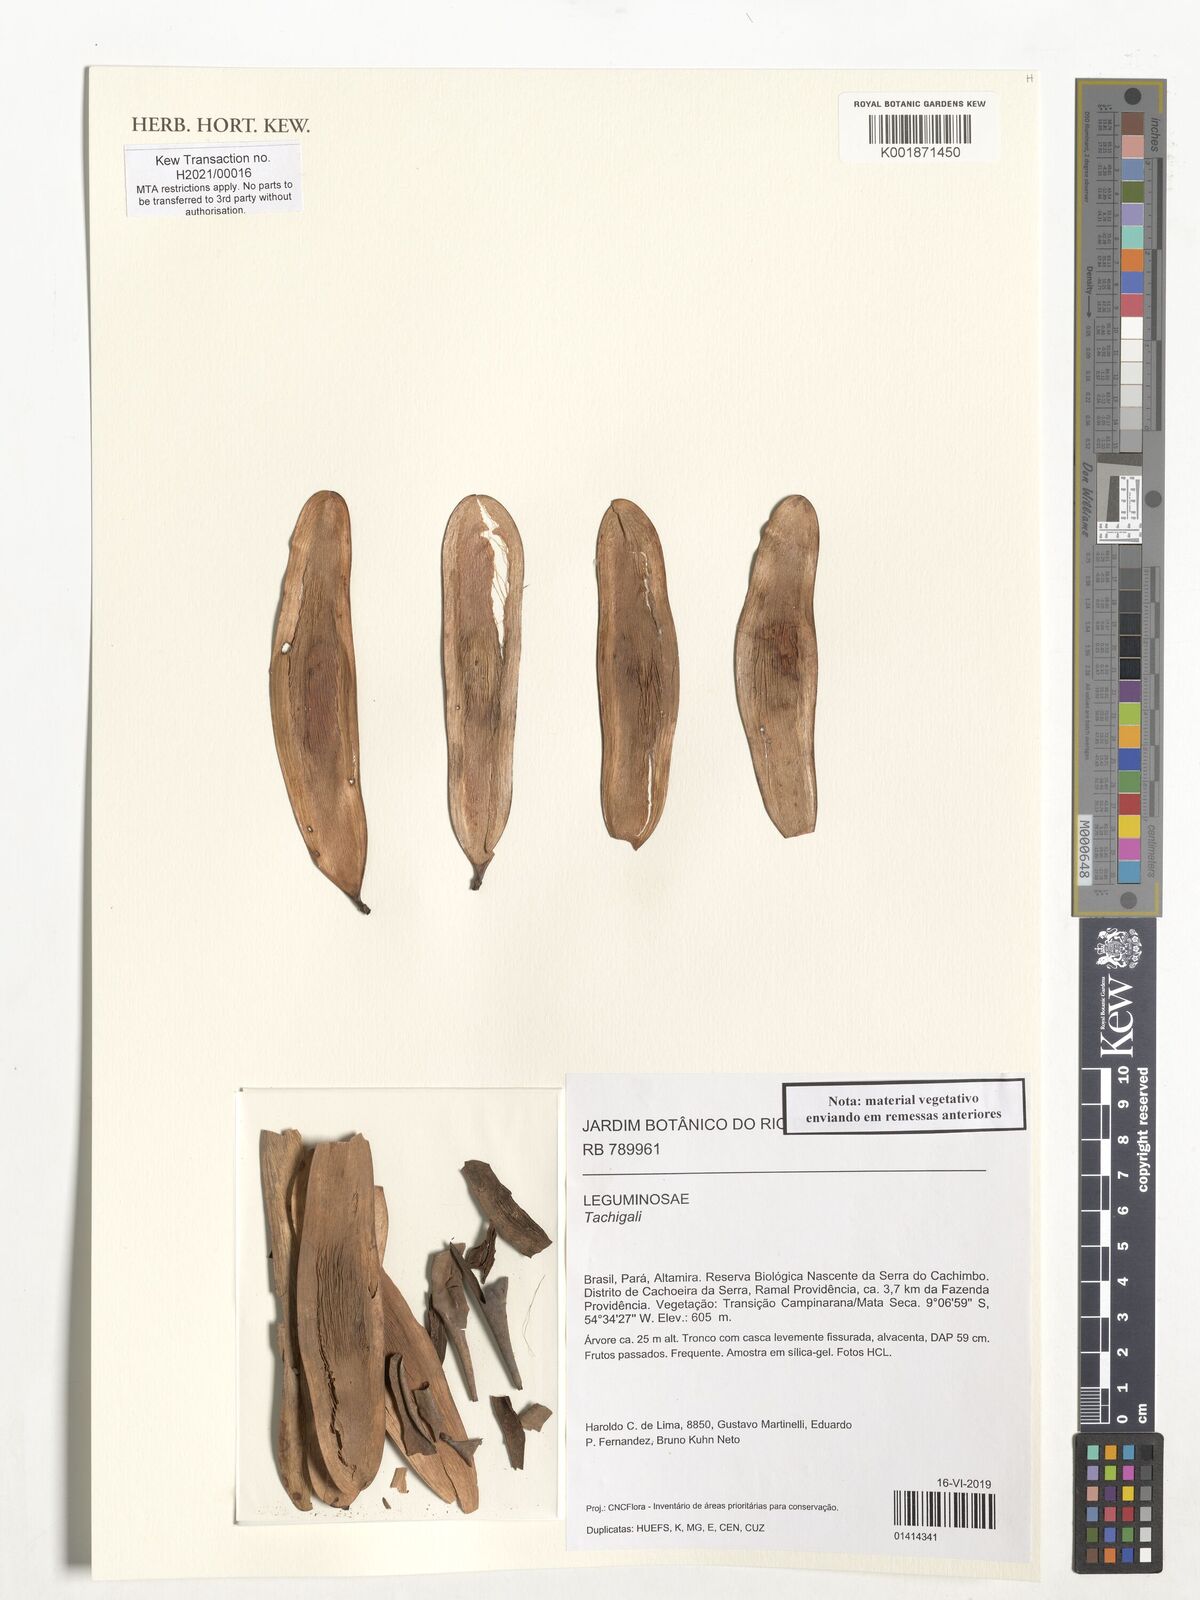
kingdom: Plantae
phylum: Tracheophyta
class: Magnoliopsida
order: Fabales
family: Fabaceae
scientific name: Fabaceae
